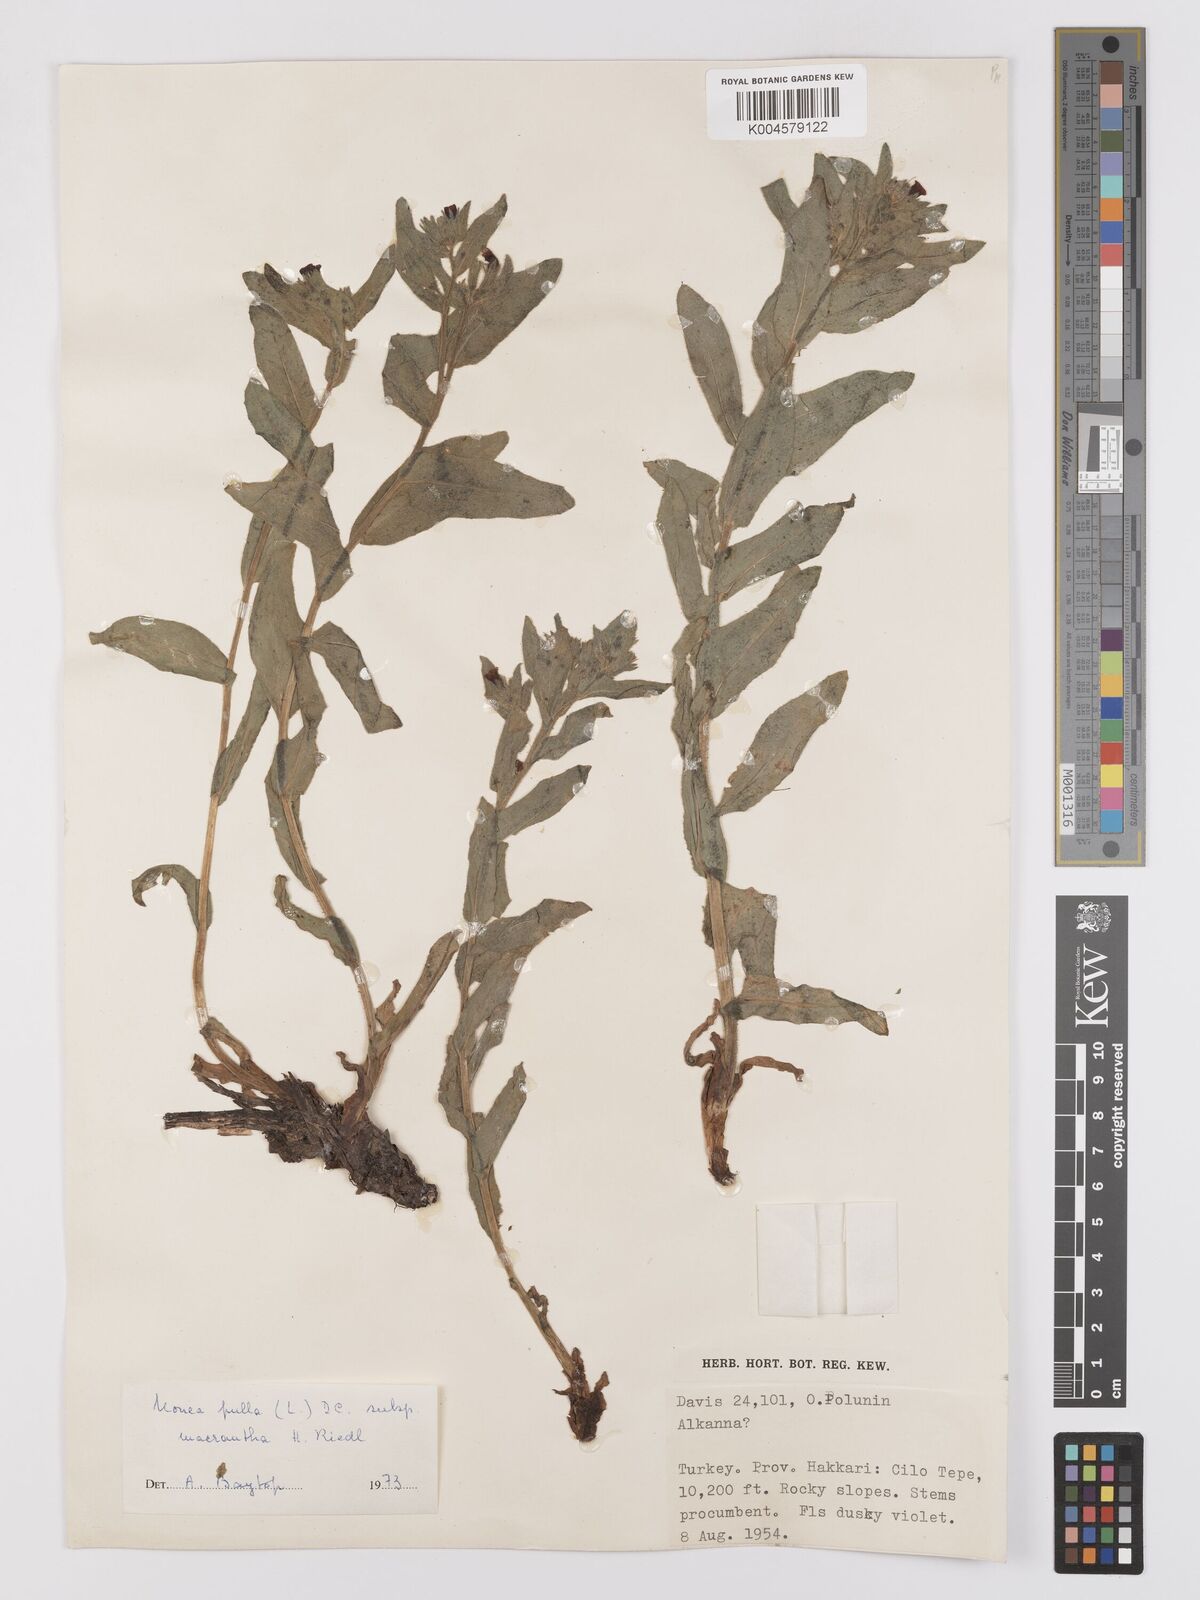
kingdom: Plantae
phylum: Tracheophyta
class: Magnoliopsida
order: Boraginales
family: Boraginaceae
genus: Nonea
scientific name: Nonea pulla
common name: Brown nonea
